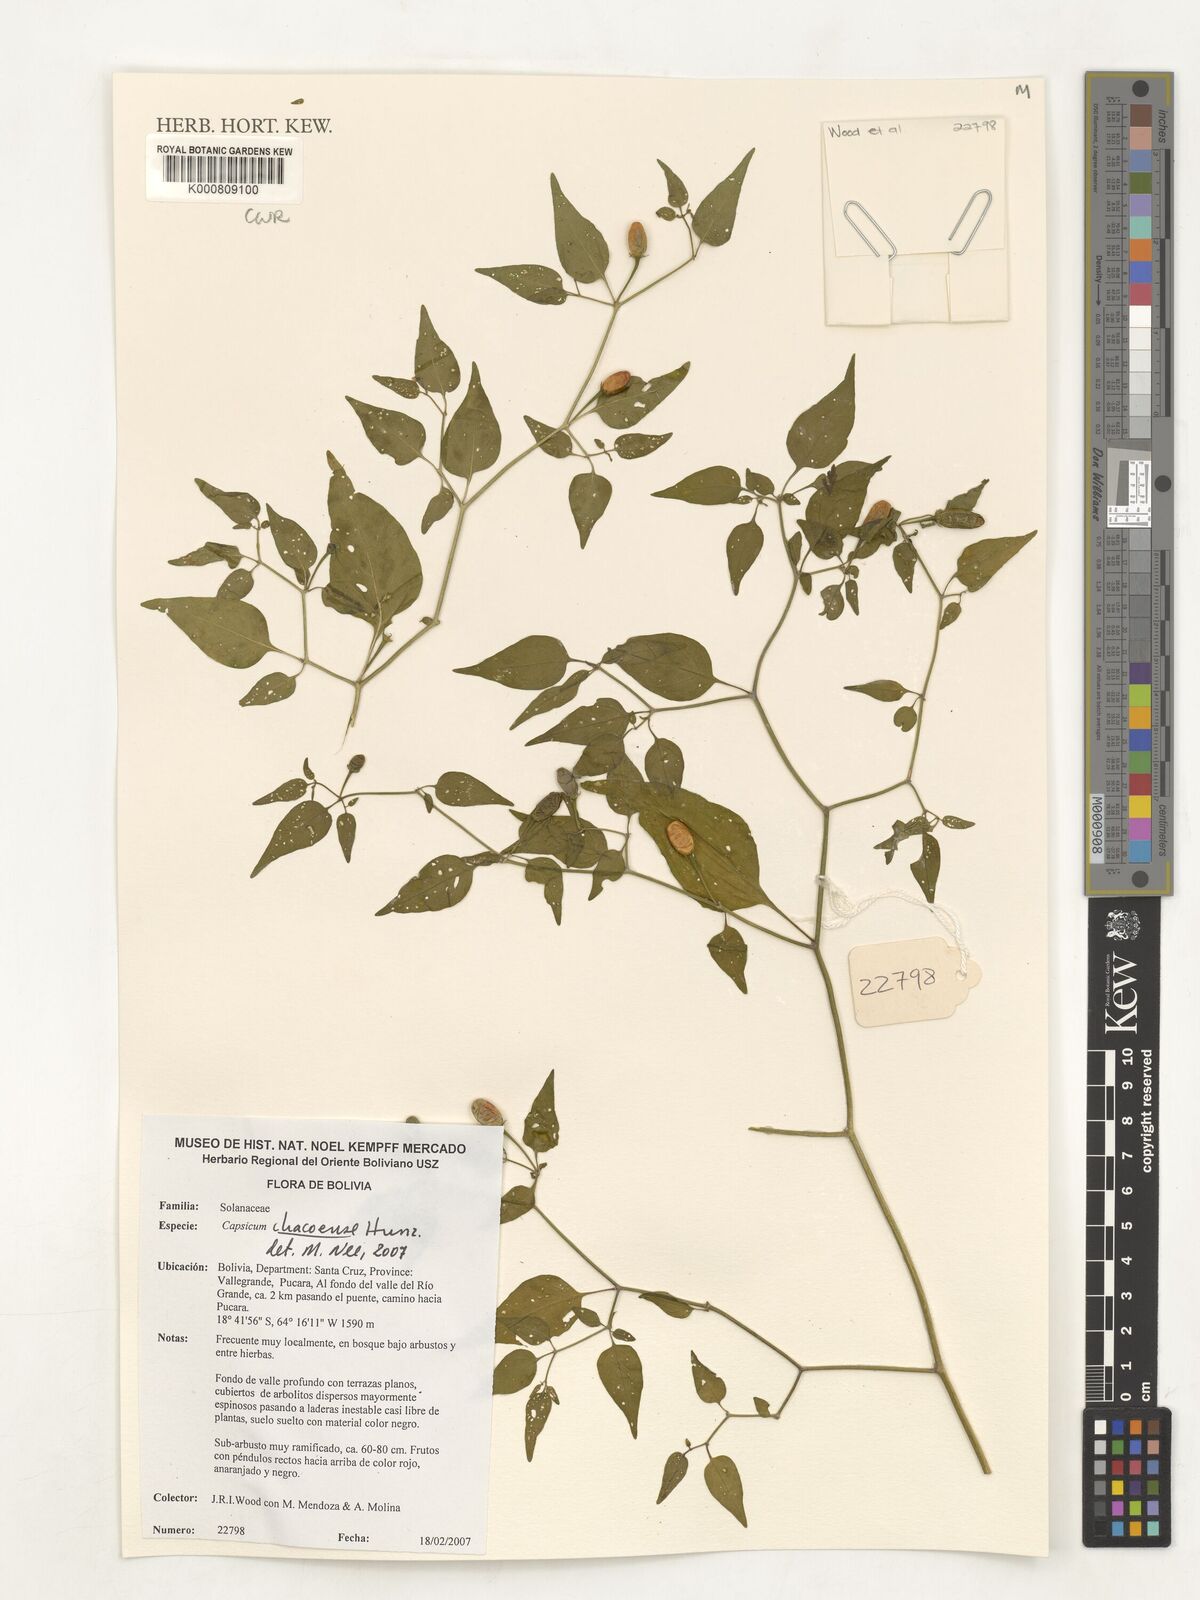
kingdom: Plantae
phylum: Tracheophyta
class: Magnoliopsida
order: Solanales
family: Solanaceae
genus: Capsicum
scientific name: Capsicum chacoense
